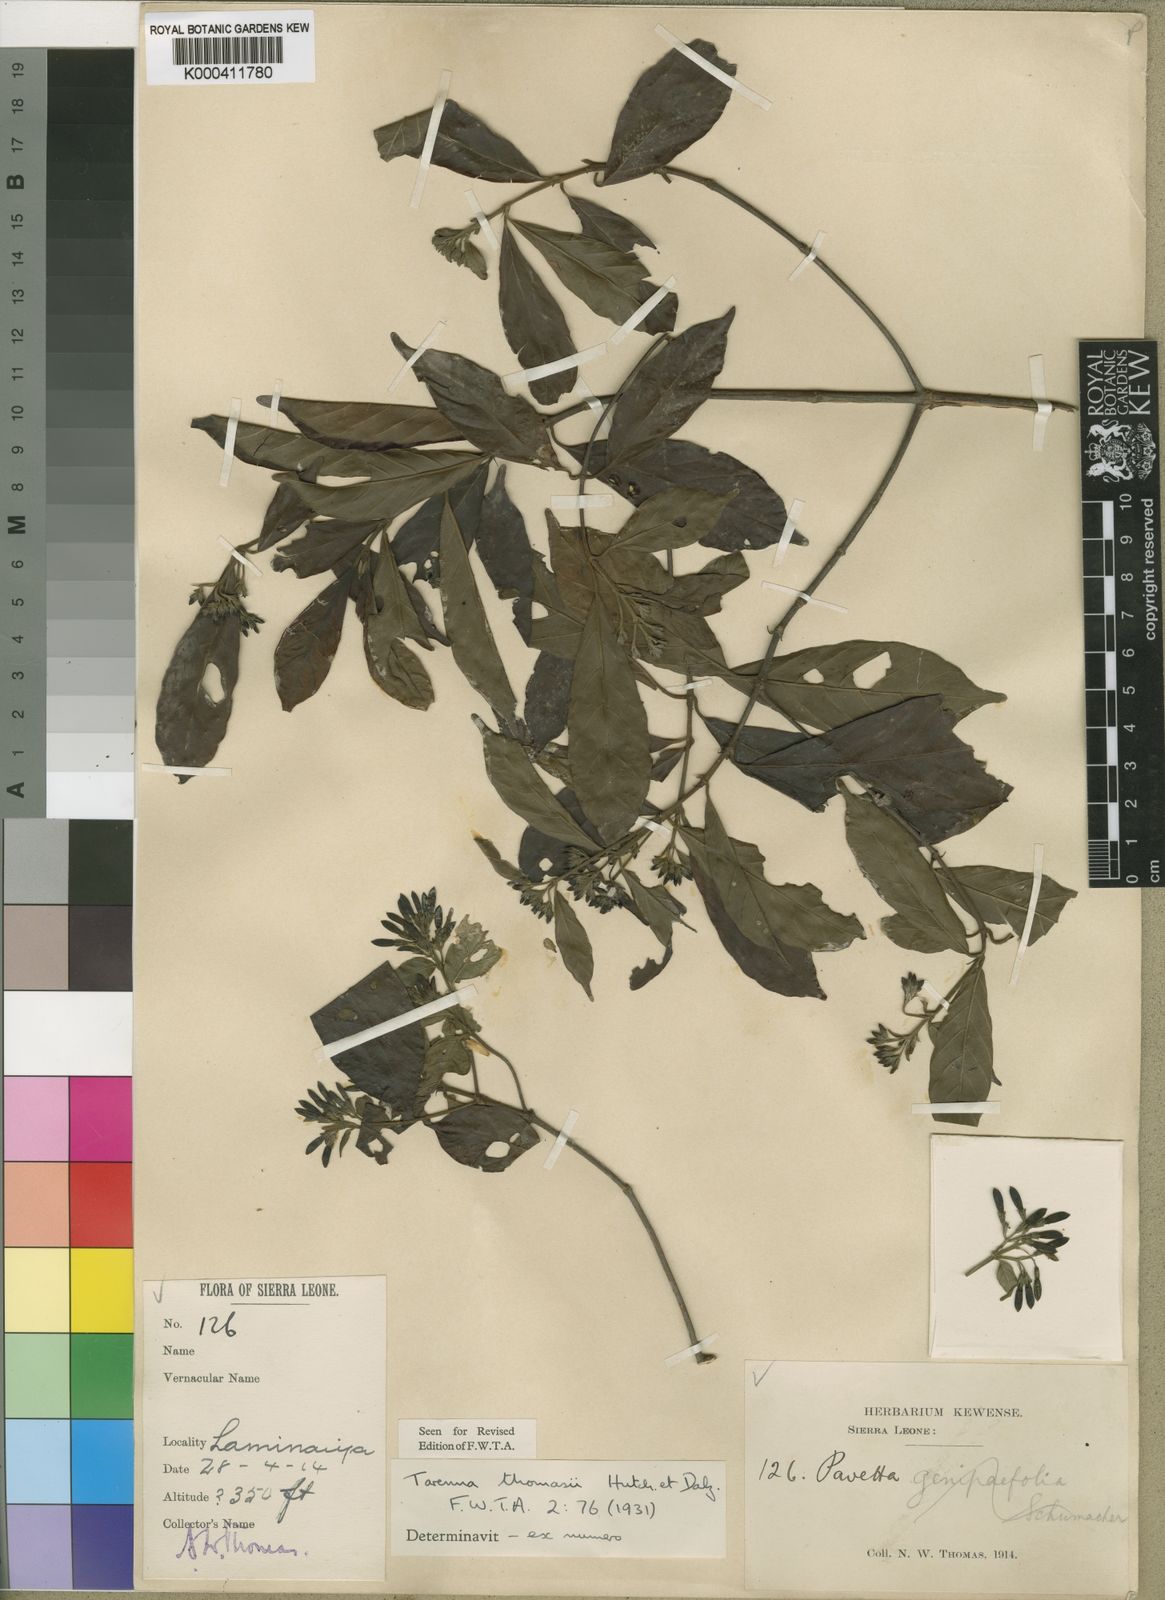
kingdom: Plantae
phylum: Tracheophyta
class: Magnoliopsida
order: Gentianales
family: Rubiaceae
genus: Tarenna
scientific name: Tarenna thomasii
